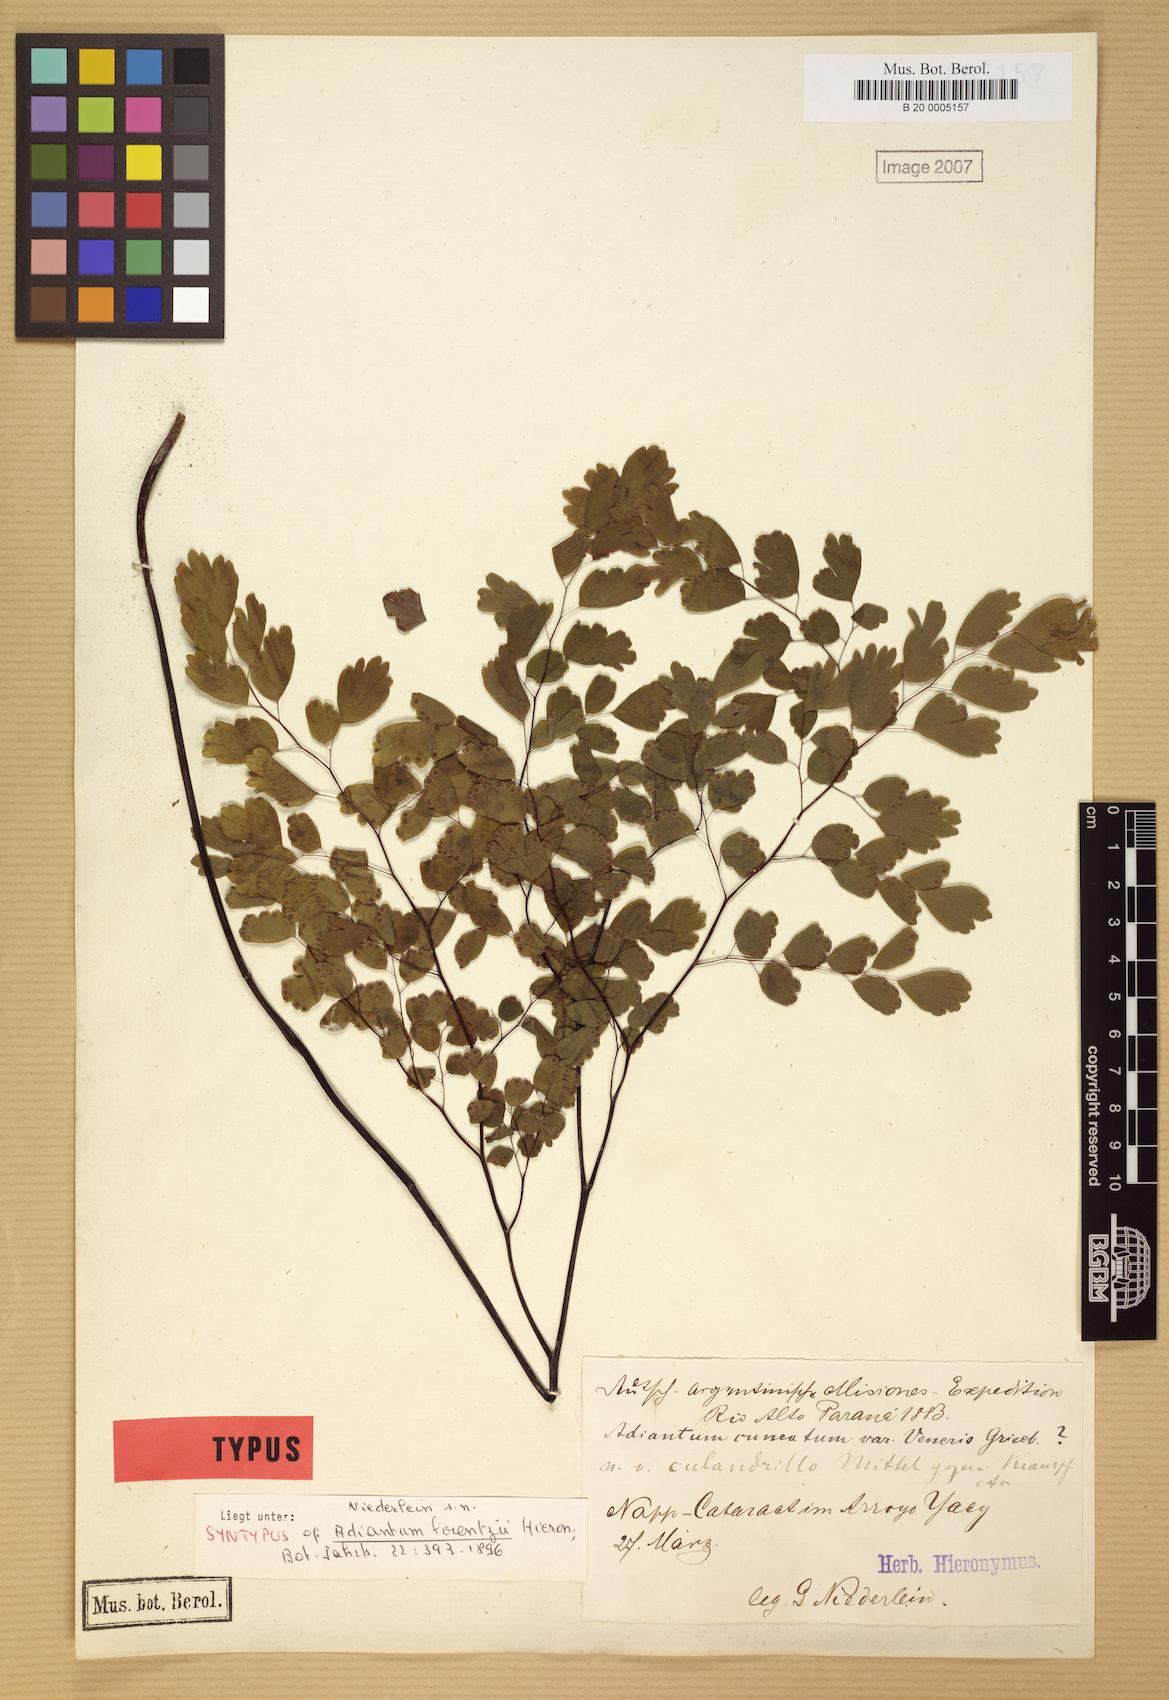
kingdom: Plantae
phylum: Tracheophyta
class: Polypodiopsida
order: Polypodiales
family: Pteridaceae
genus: Adiantum
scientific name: Adiantum lorentzii
